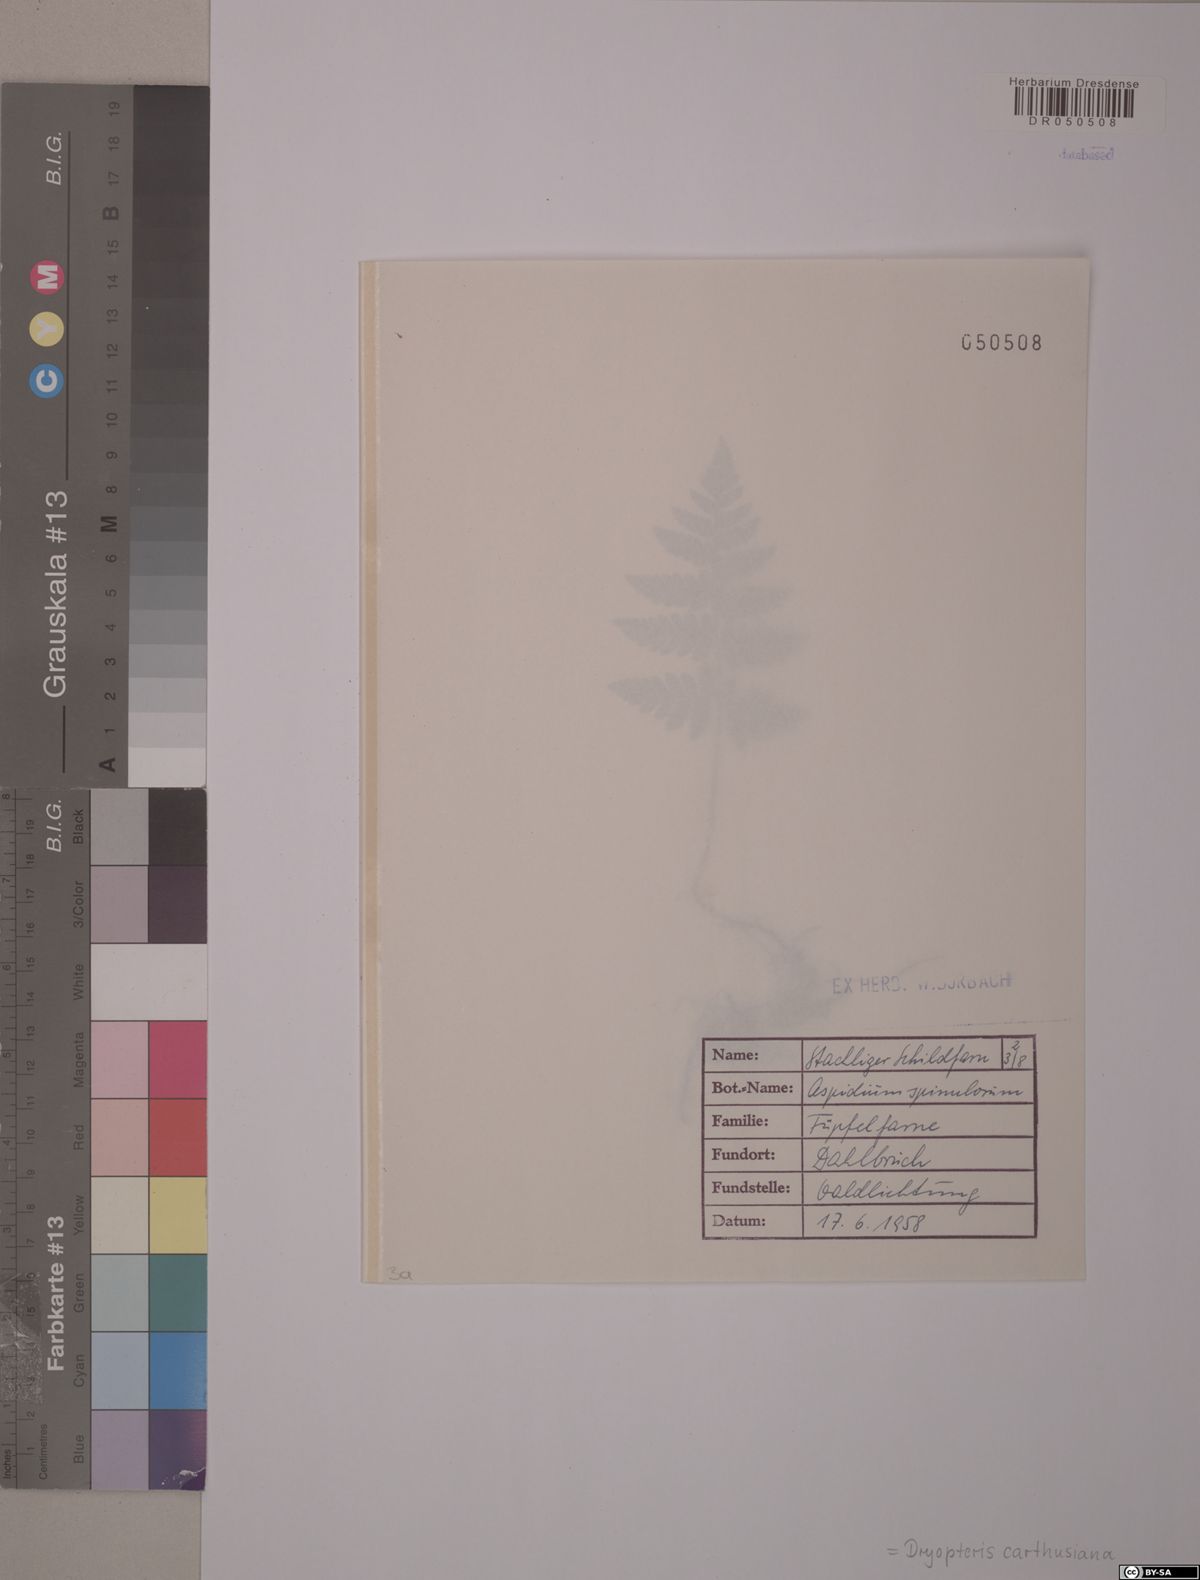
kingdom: Plantae
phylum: Tracheophyta
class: Polypodiopsida
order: Polypodiales
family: Dryopteridaceae
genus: Dryopteris
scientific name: Dryopteris carthusiana
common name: Narrow buckler-fern
